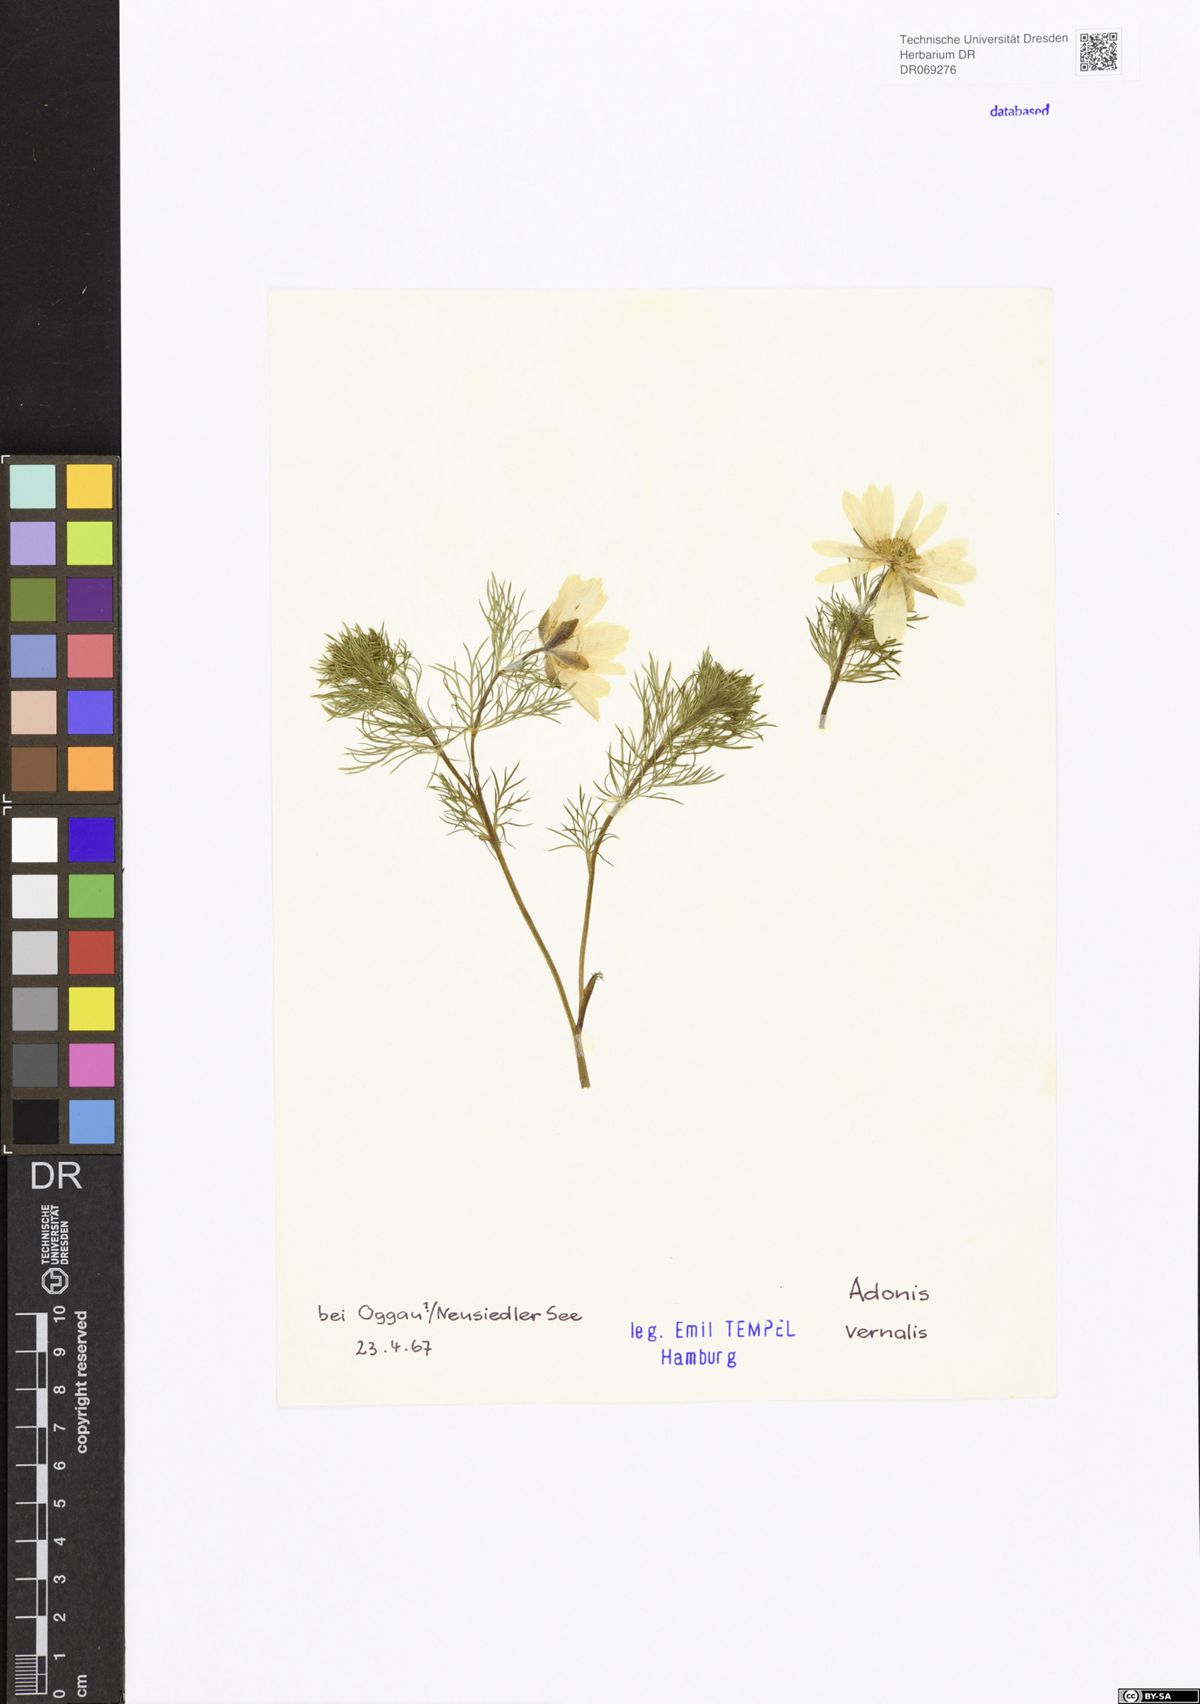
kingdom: Plantae
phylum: Tracheophyta
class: Magnoliopsida
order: Ranunculales
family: Ranunculaceae
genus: Adonis
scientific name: Adonis vernalis
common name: Yellow pheasants-eye
